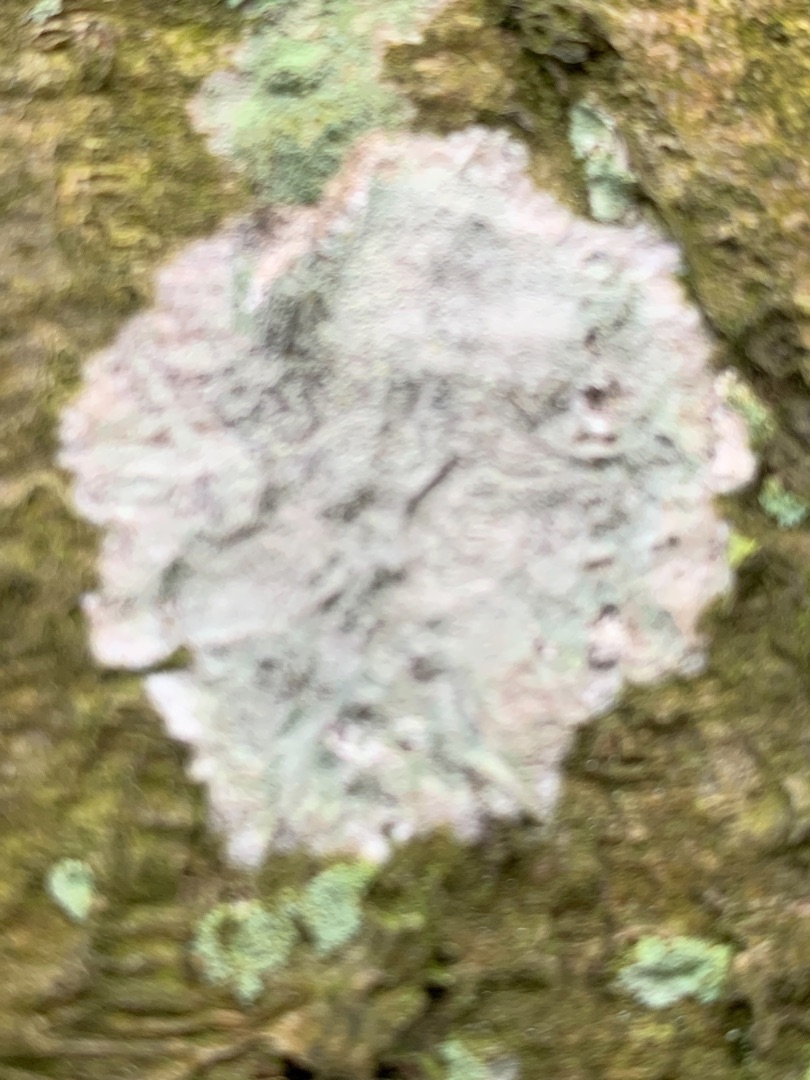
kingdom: Fungi
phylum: Ascomycota
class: Lecanoromycetes
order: Ostropales
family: Phlyctidaceae
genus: Phlyctis
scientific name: Phlyctis argena
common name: Almindelig sølvlav
